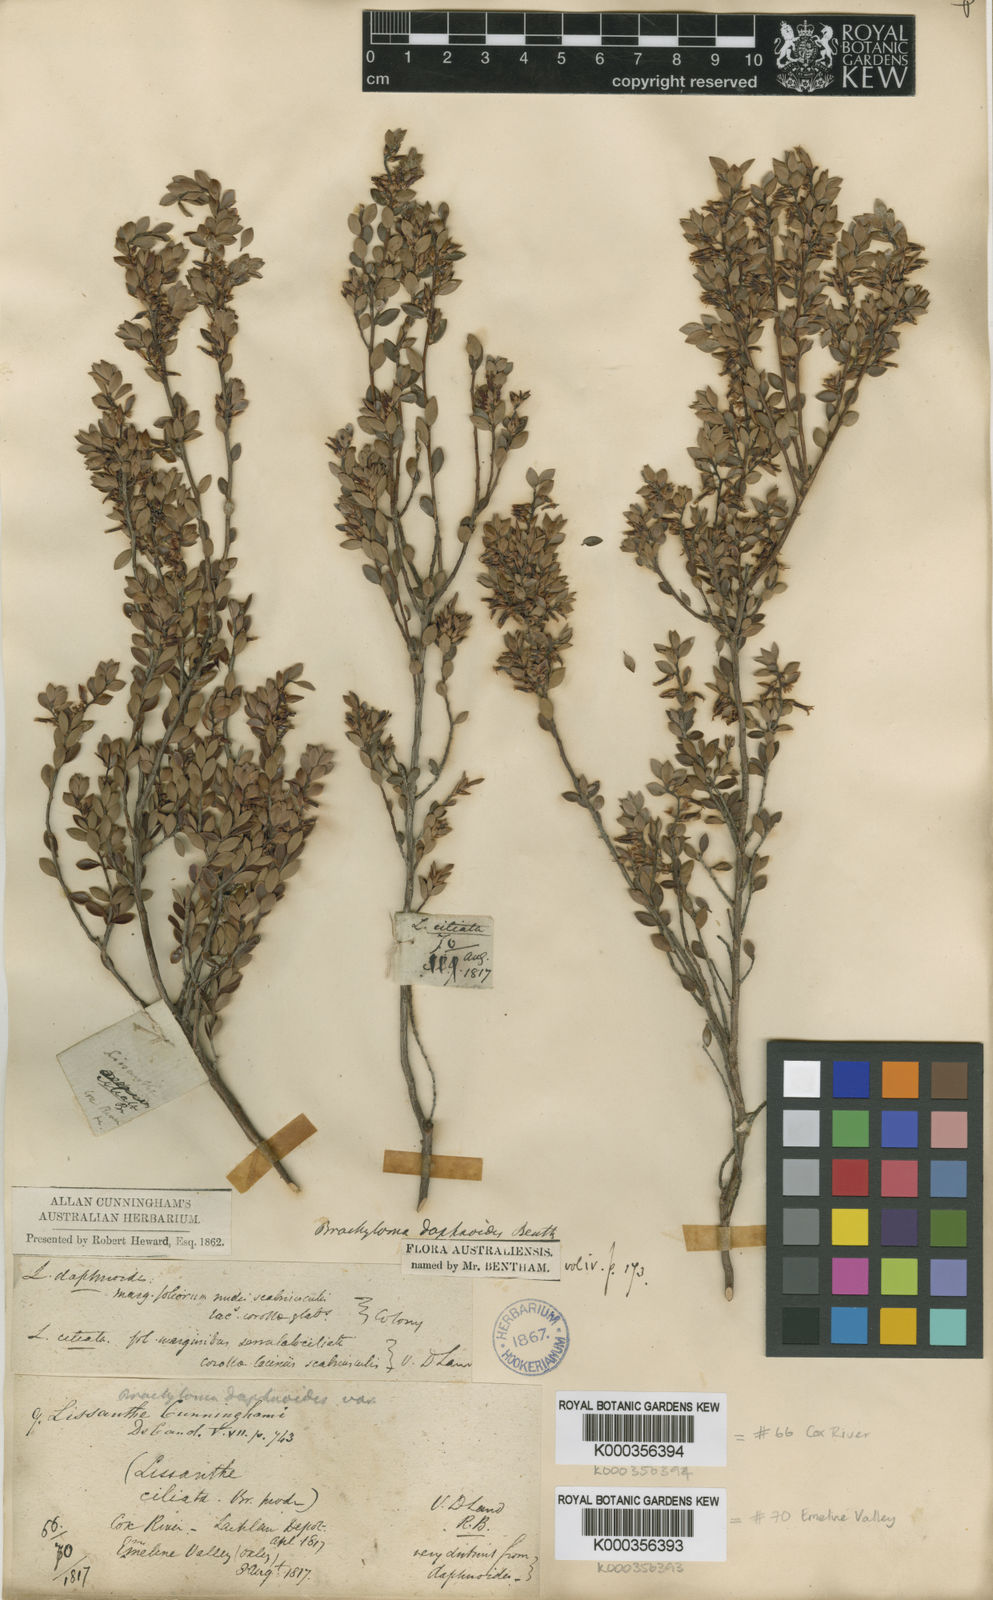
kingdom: Plantae
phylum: Tracheophyta
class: Magnoliopsida
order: Ericales
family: Ericaceae
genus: Brachyloma
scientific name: Brachyloma daphnoides
